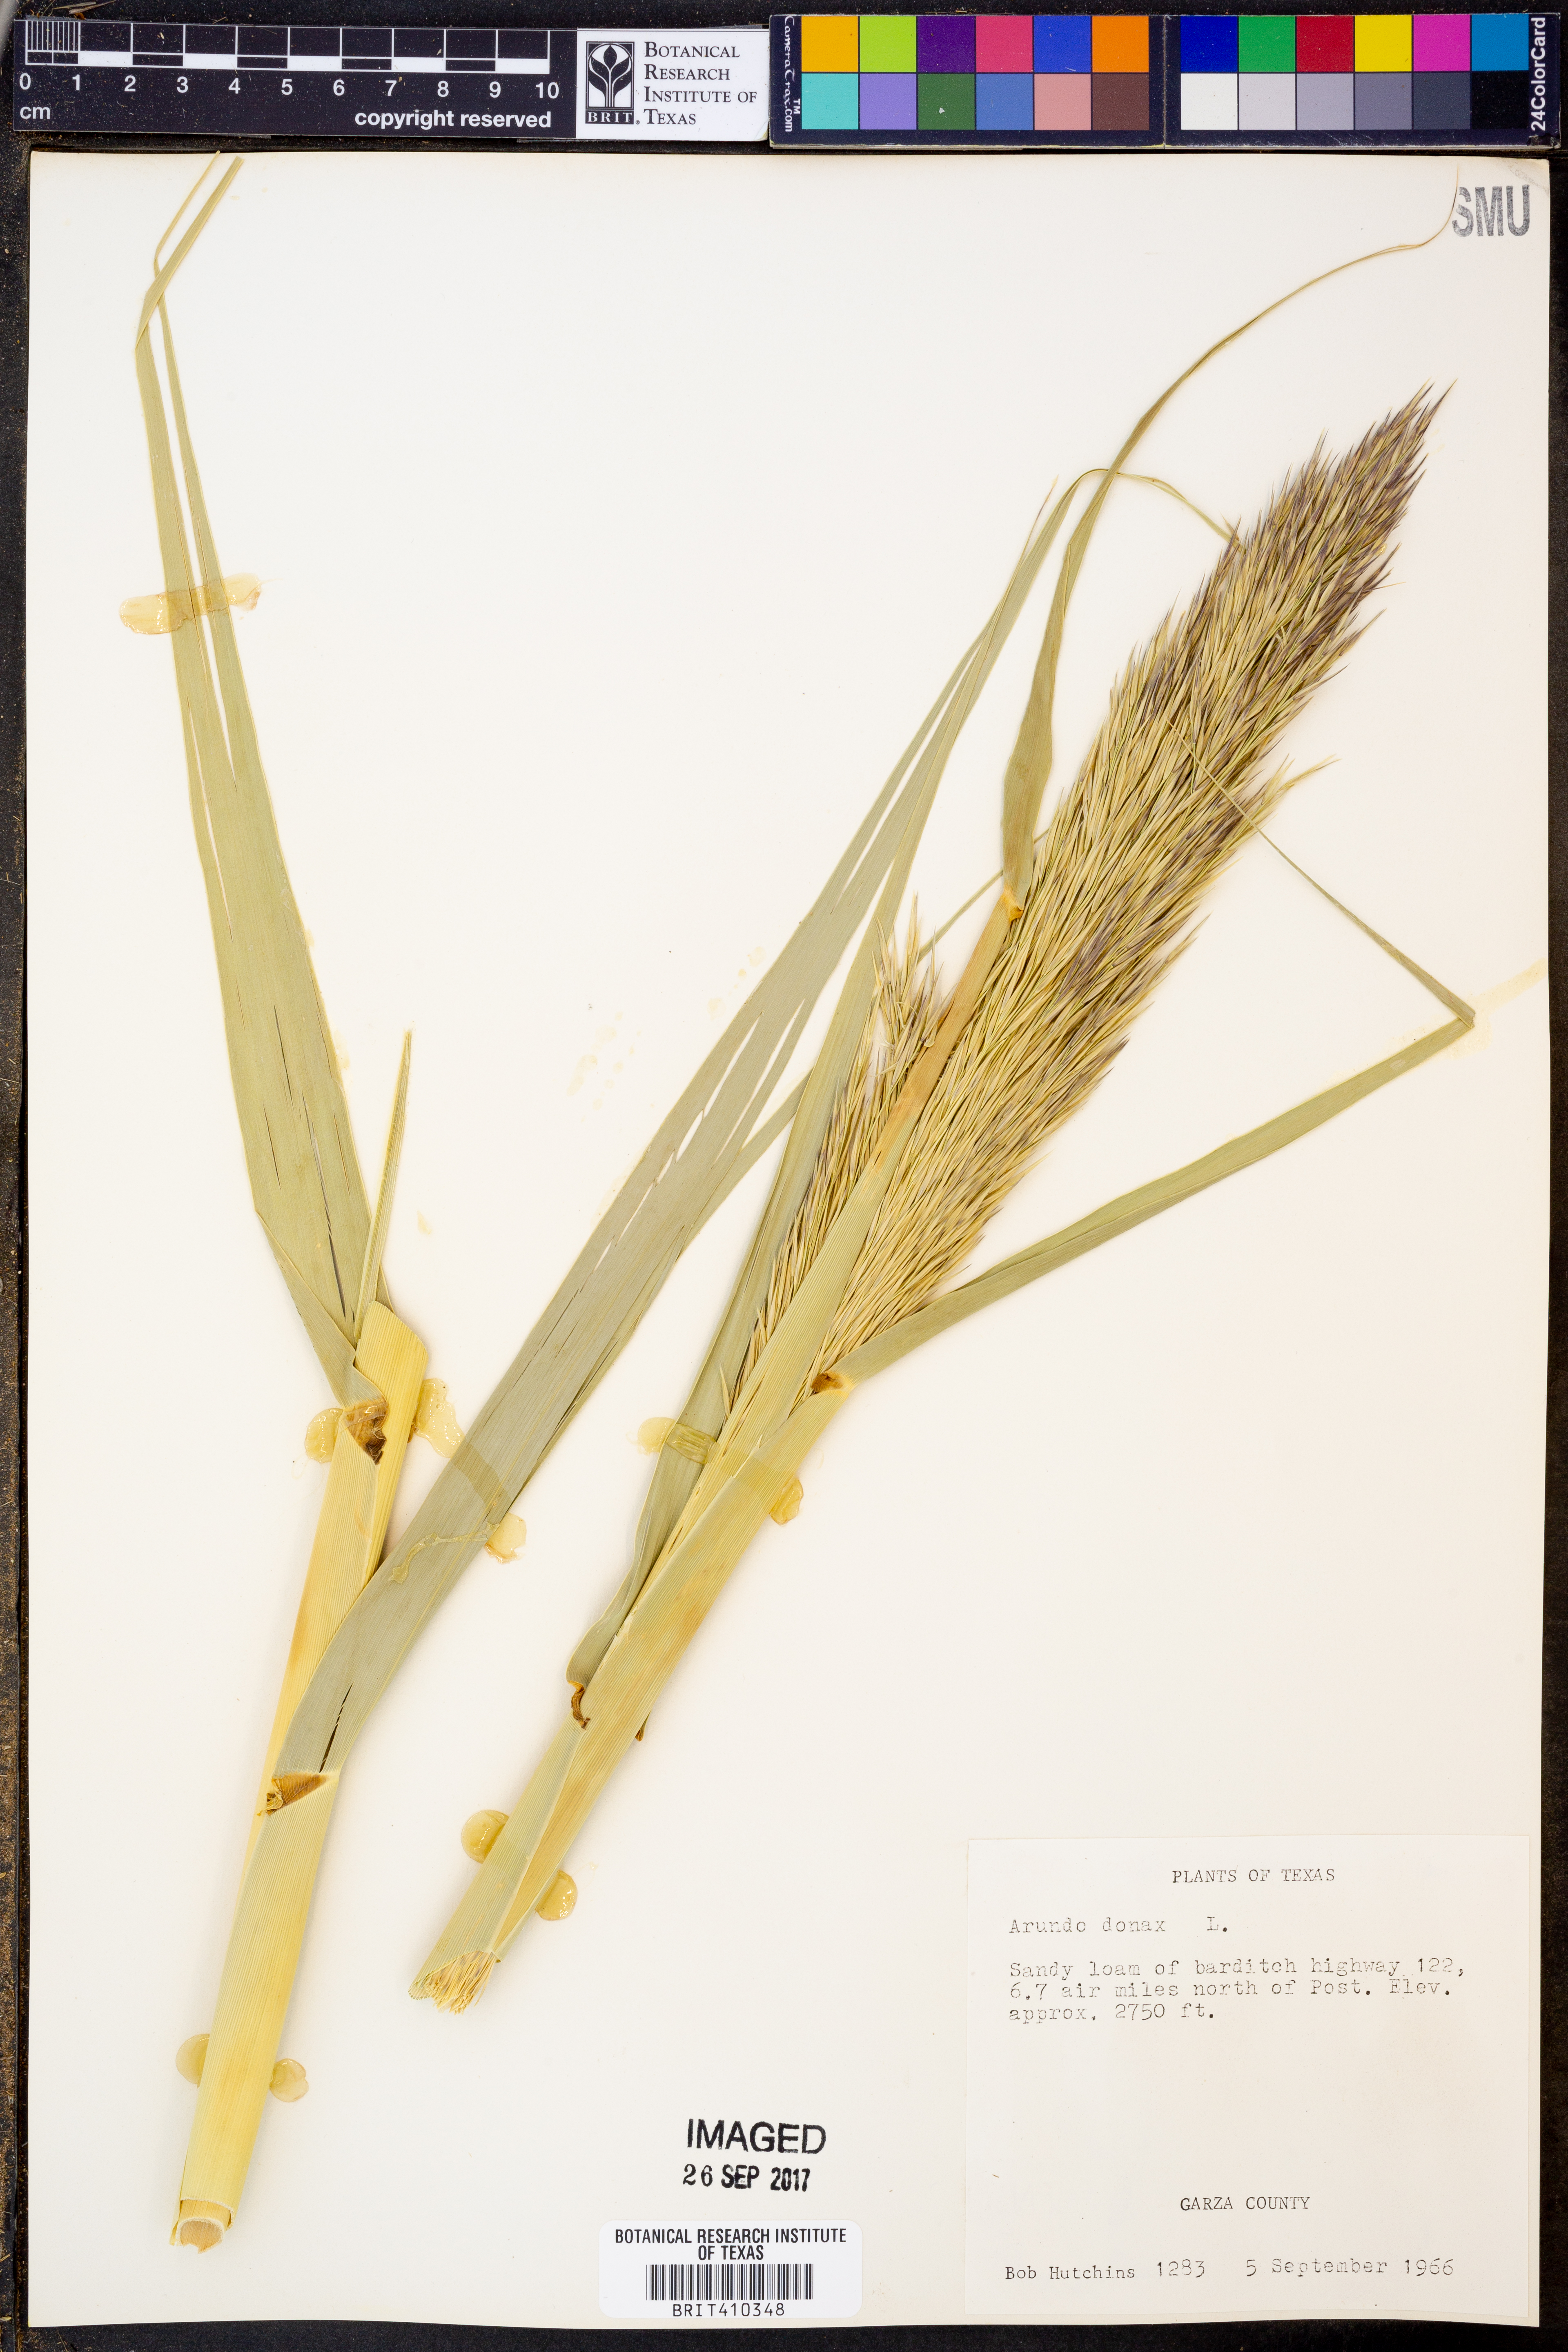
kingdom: Plantae
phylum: Tracheophyta
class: Liliopsida
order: Poales
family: Poaceae
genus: Arundo
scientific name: Arundo donax
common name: Giant reed
